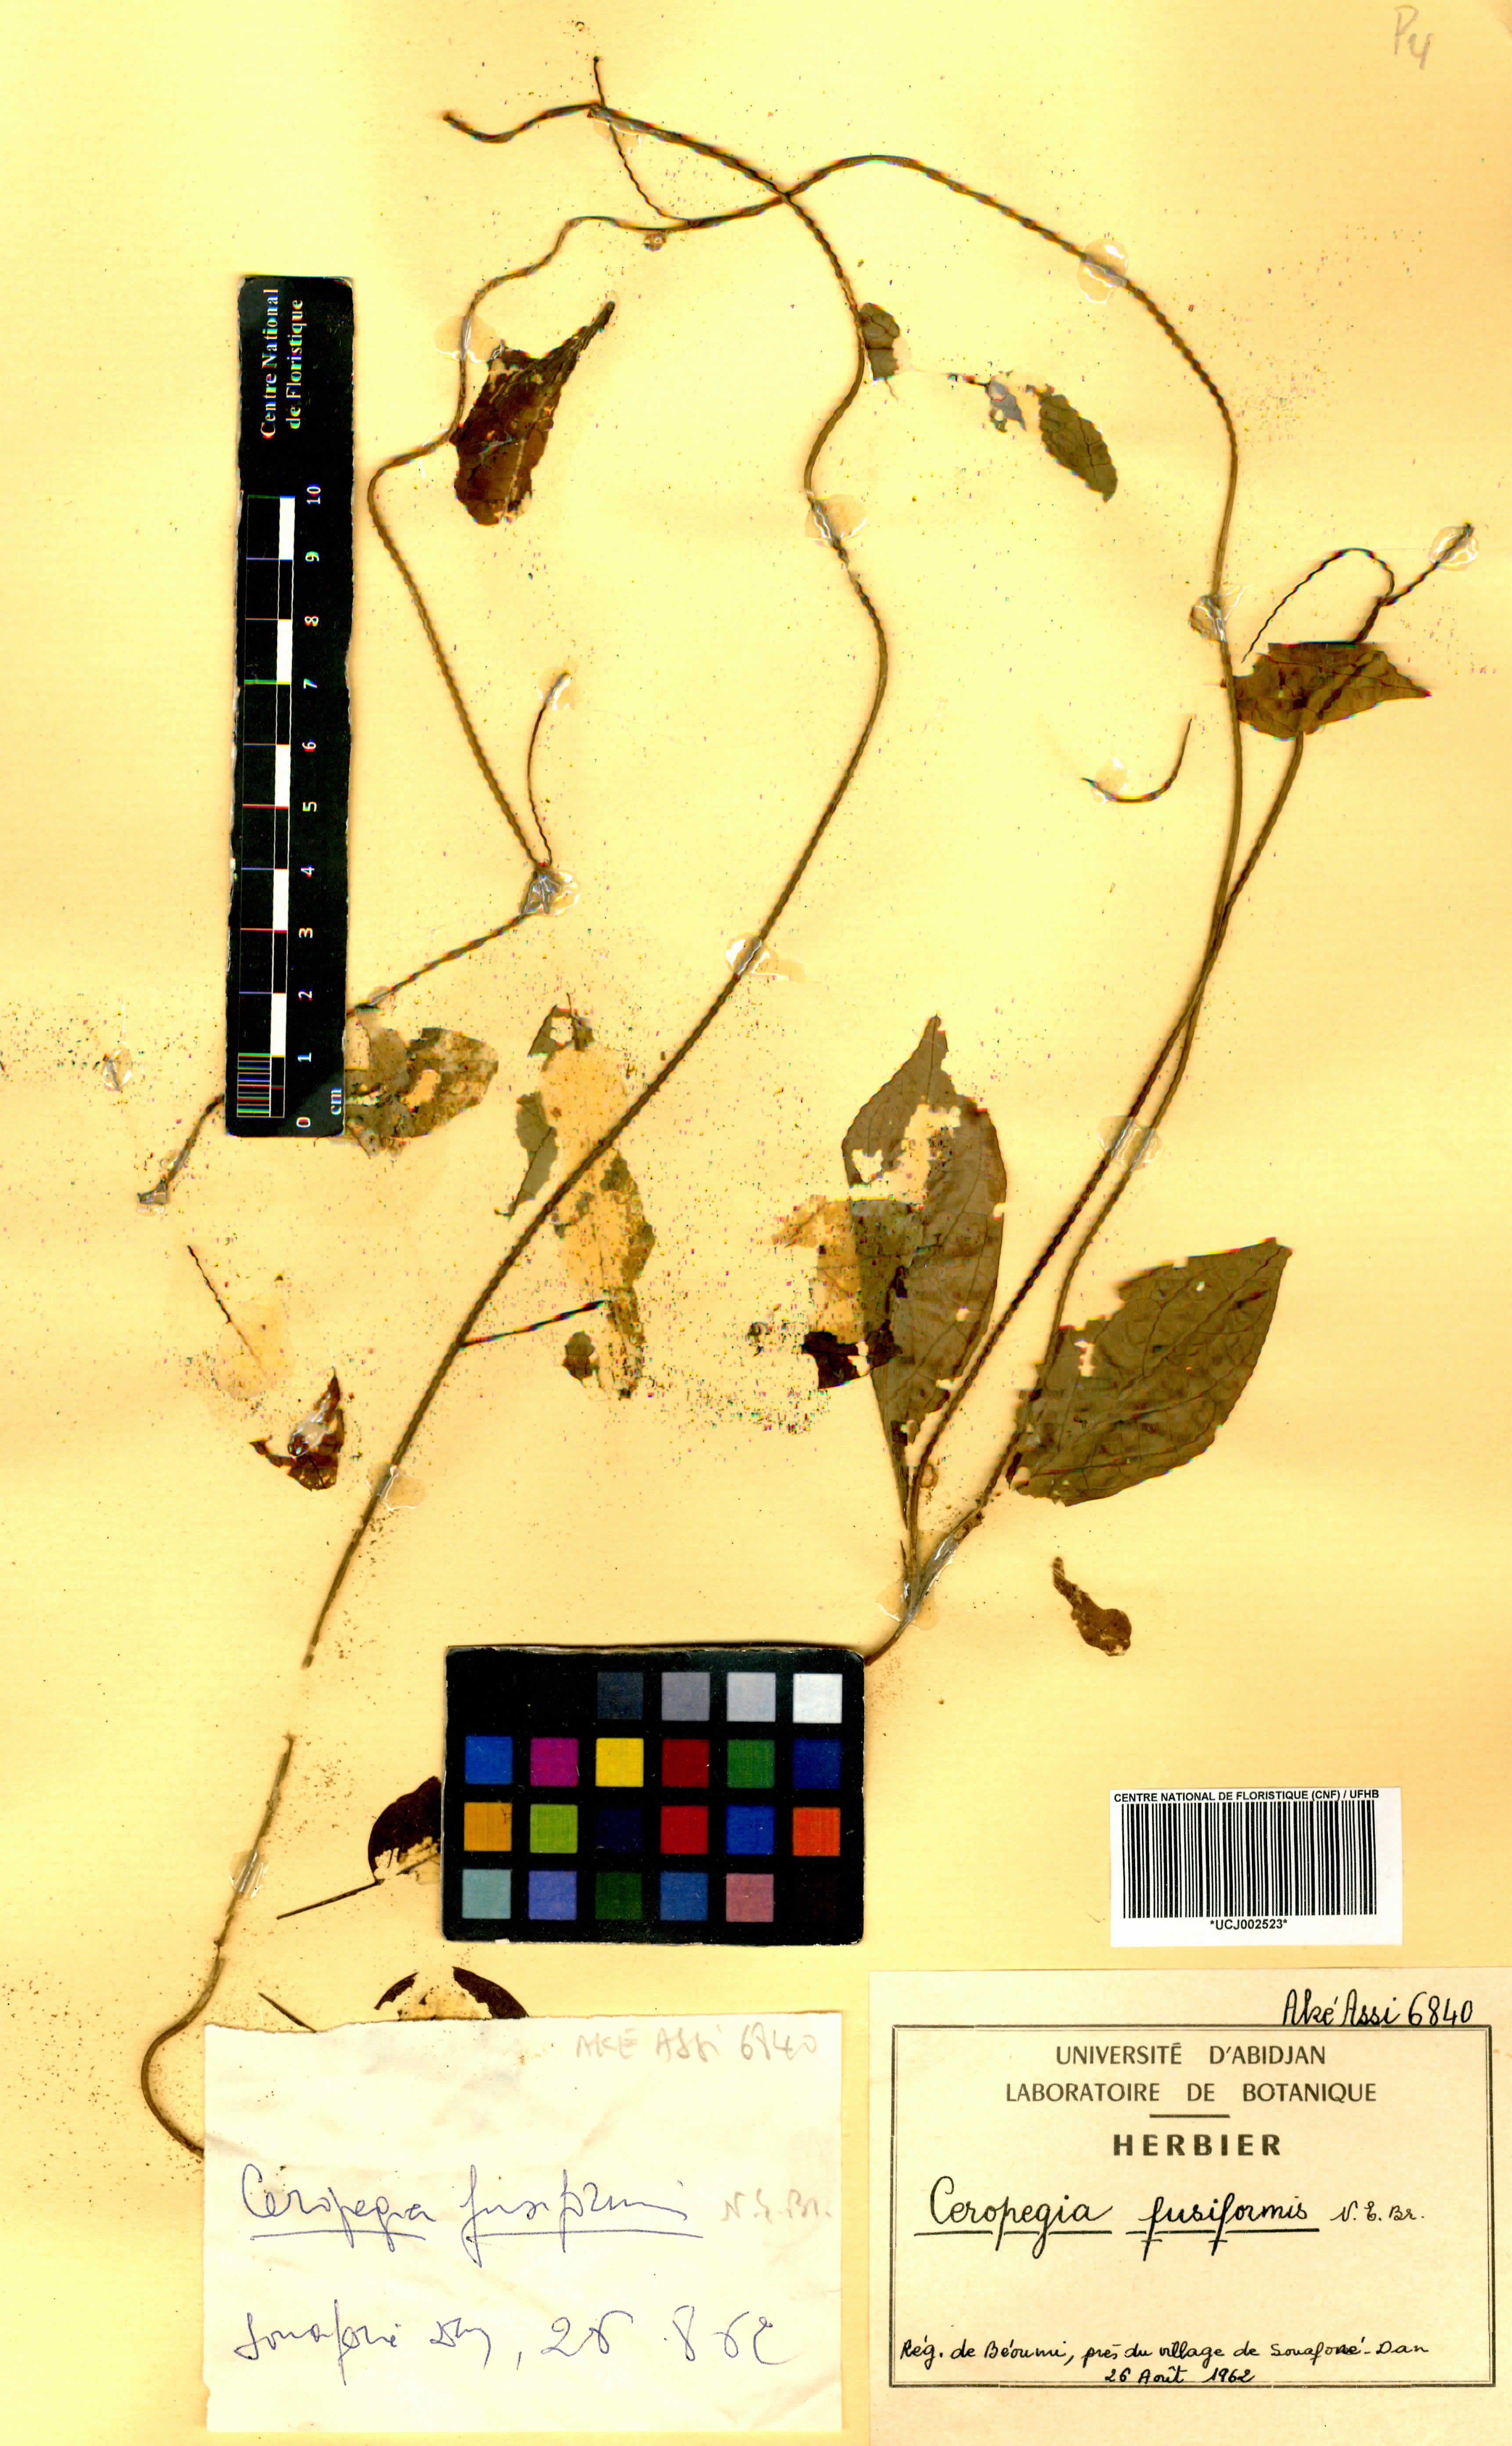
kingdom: Plantae
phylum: Tracheophyta
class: Magnoliopsida
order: Gentianales
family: Apocynaceae
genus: Ceropegia
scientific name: Ceropegia fusiformis
